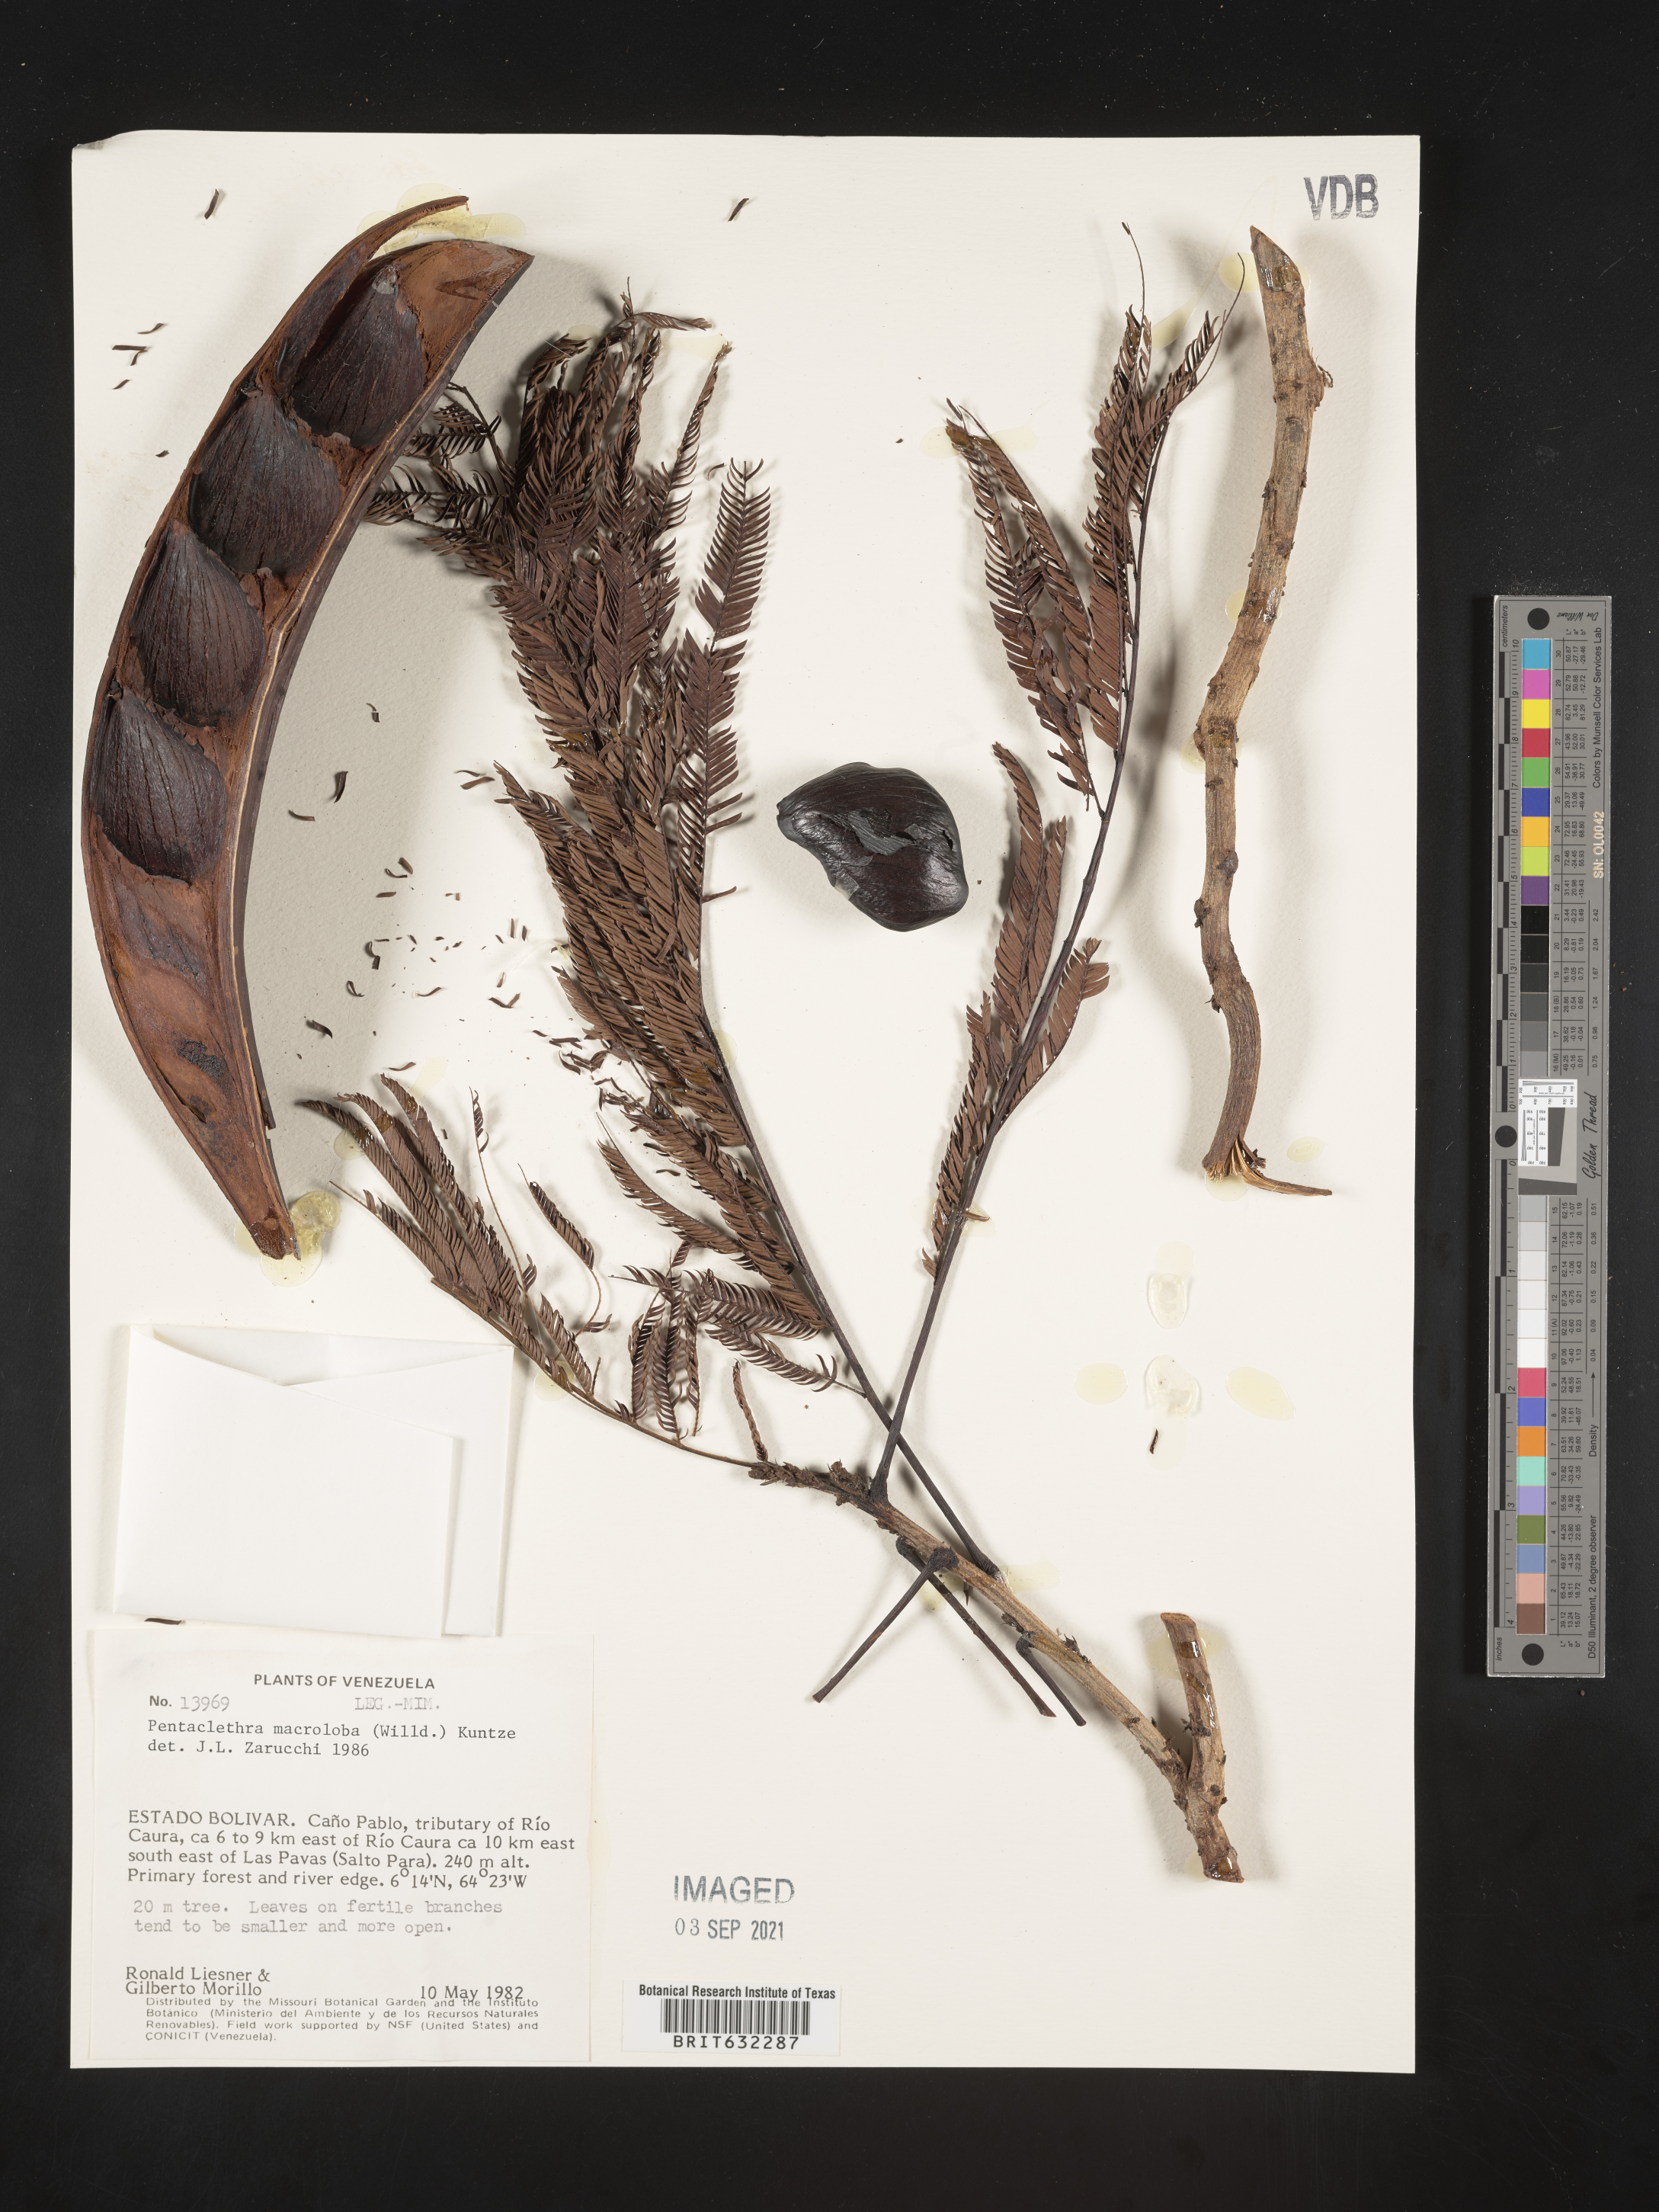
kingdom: Plantae
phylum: Tracheophyta
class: Magnoliopsida
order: Fabales
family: Fabaceae
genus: Pentaclethra
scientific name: Pentaclethra macroloba
